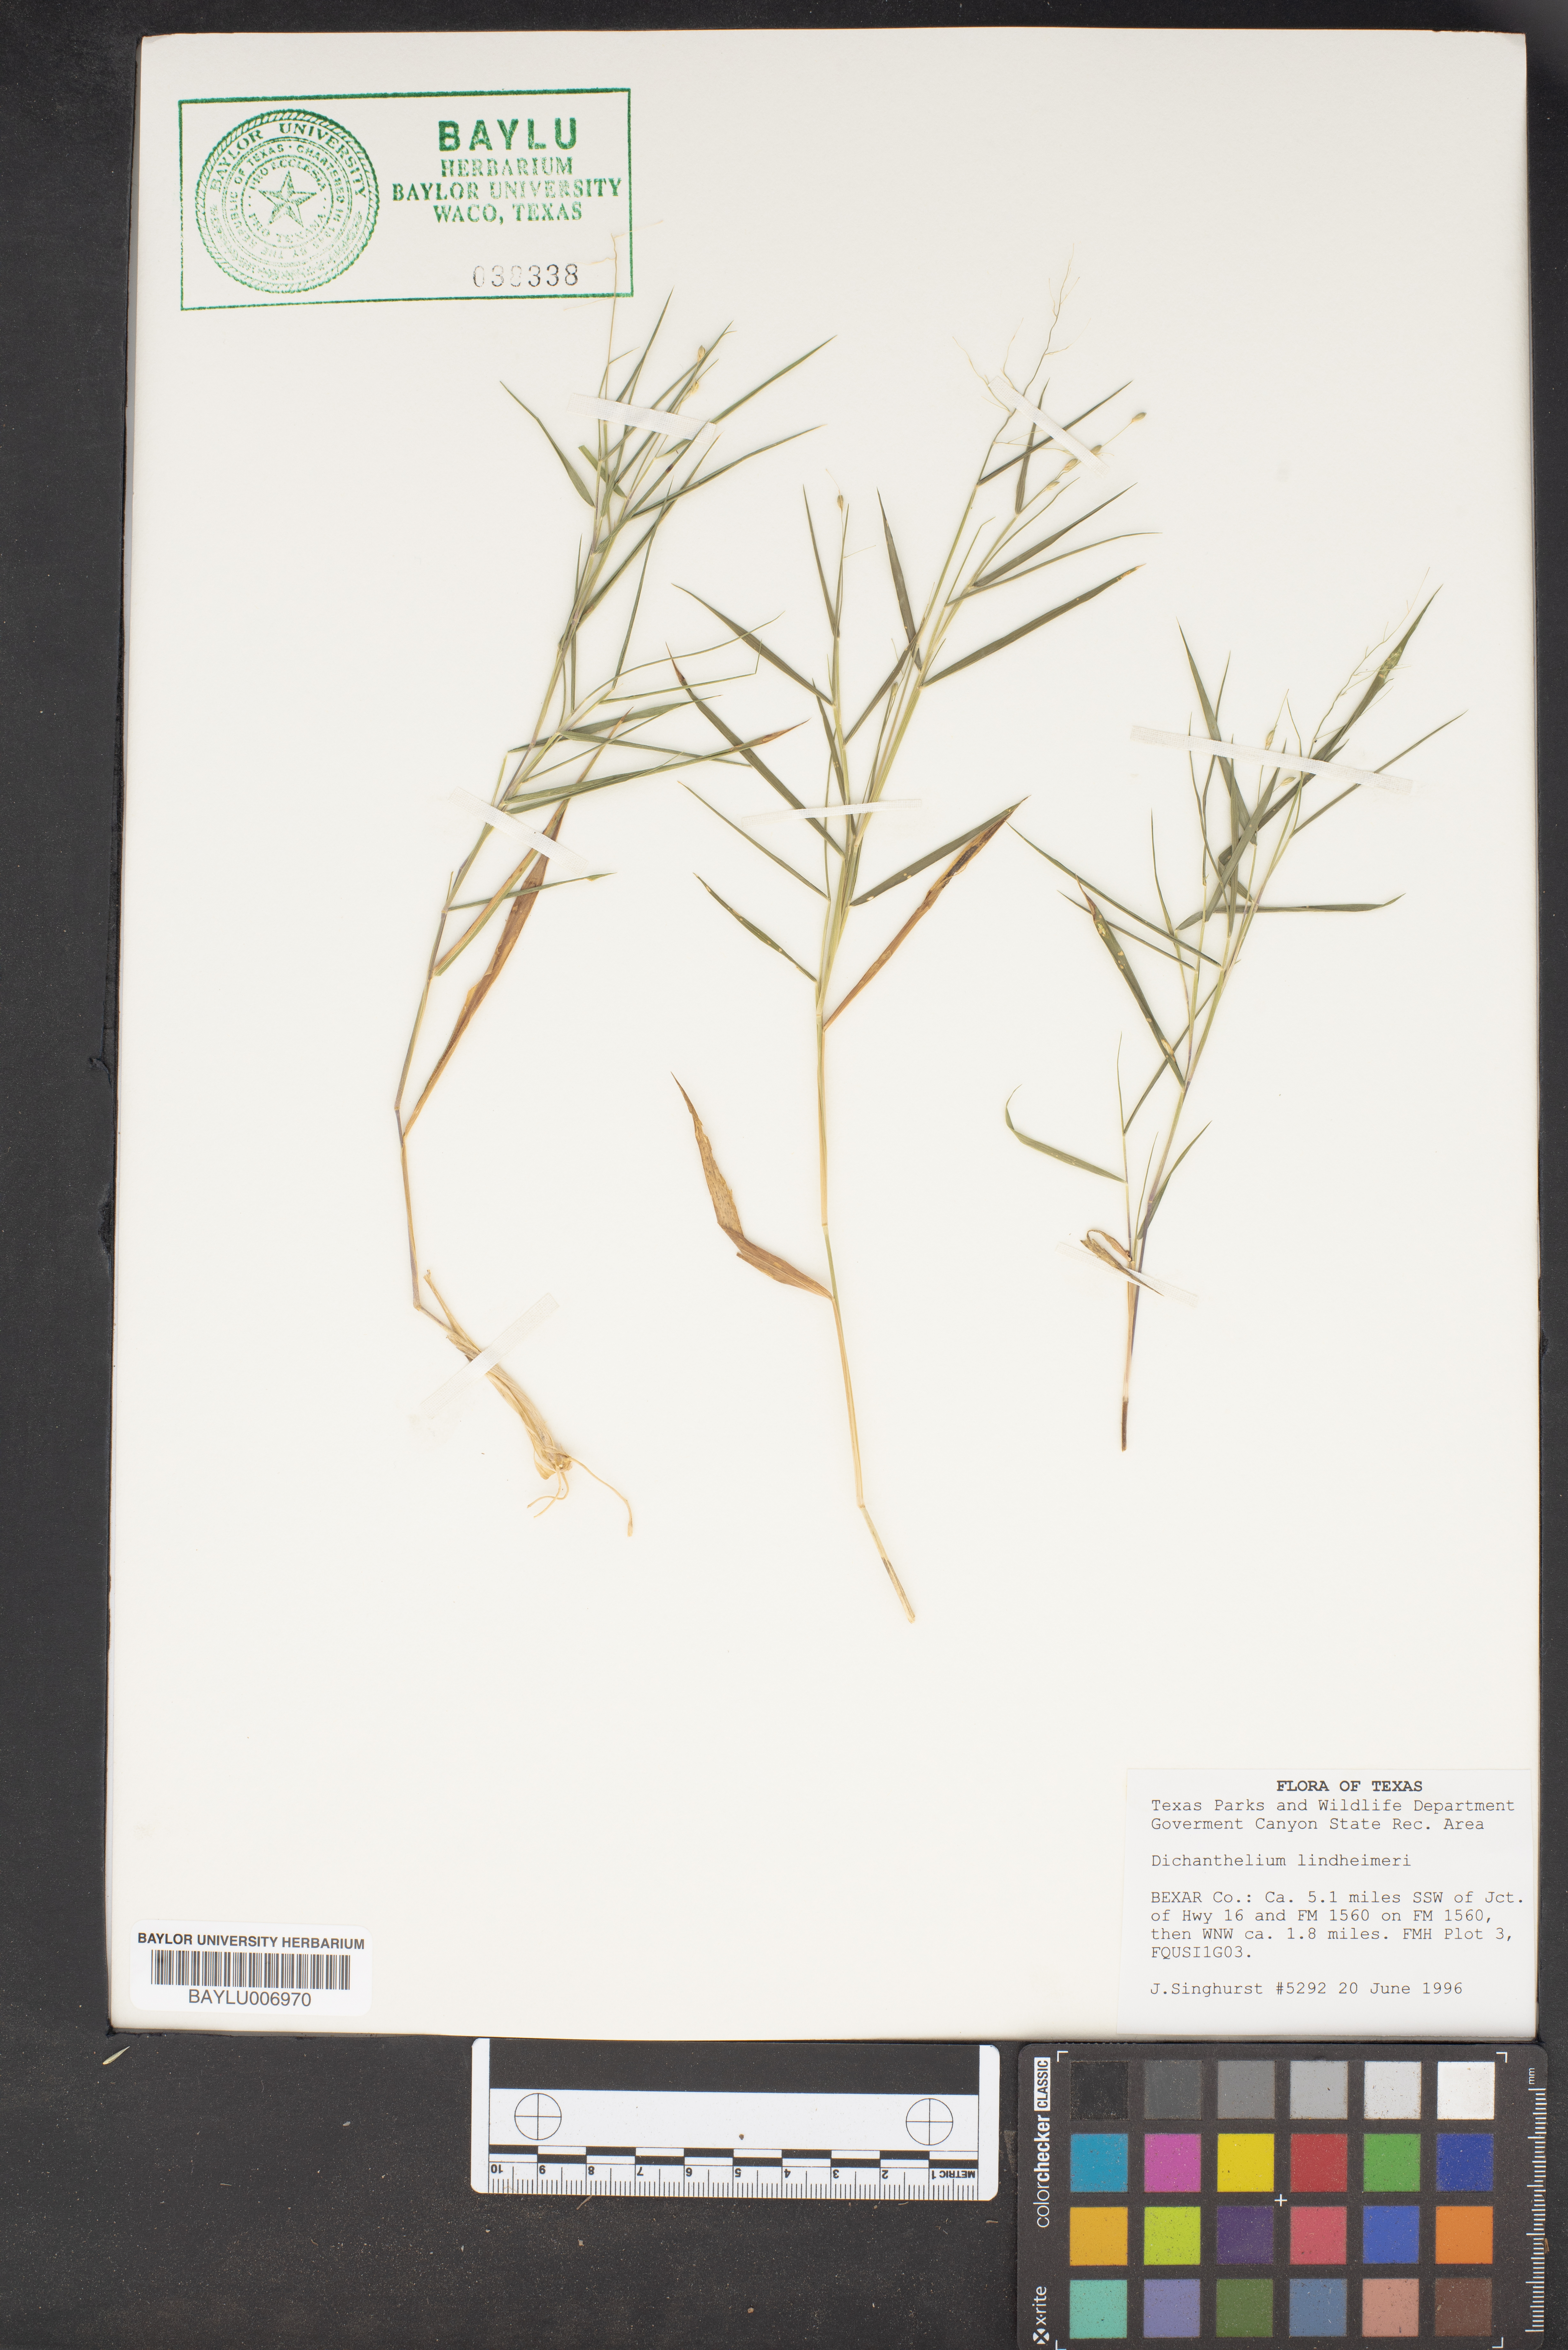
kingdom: Plantae
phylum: Tracheophyta
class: Liliopsida
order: Poales
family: Poaceae
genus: Dichanthelium
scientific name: Dichanthelium lindheimeri
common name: Lindheimer's panicgrass
